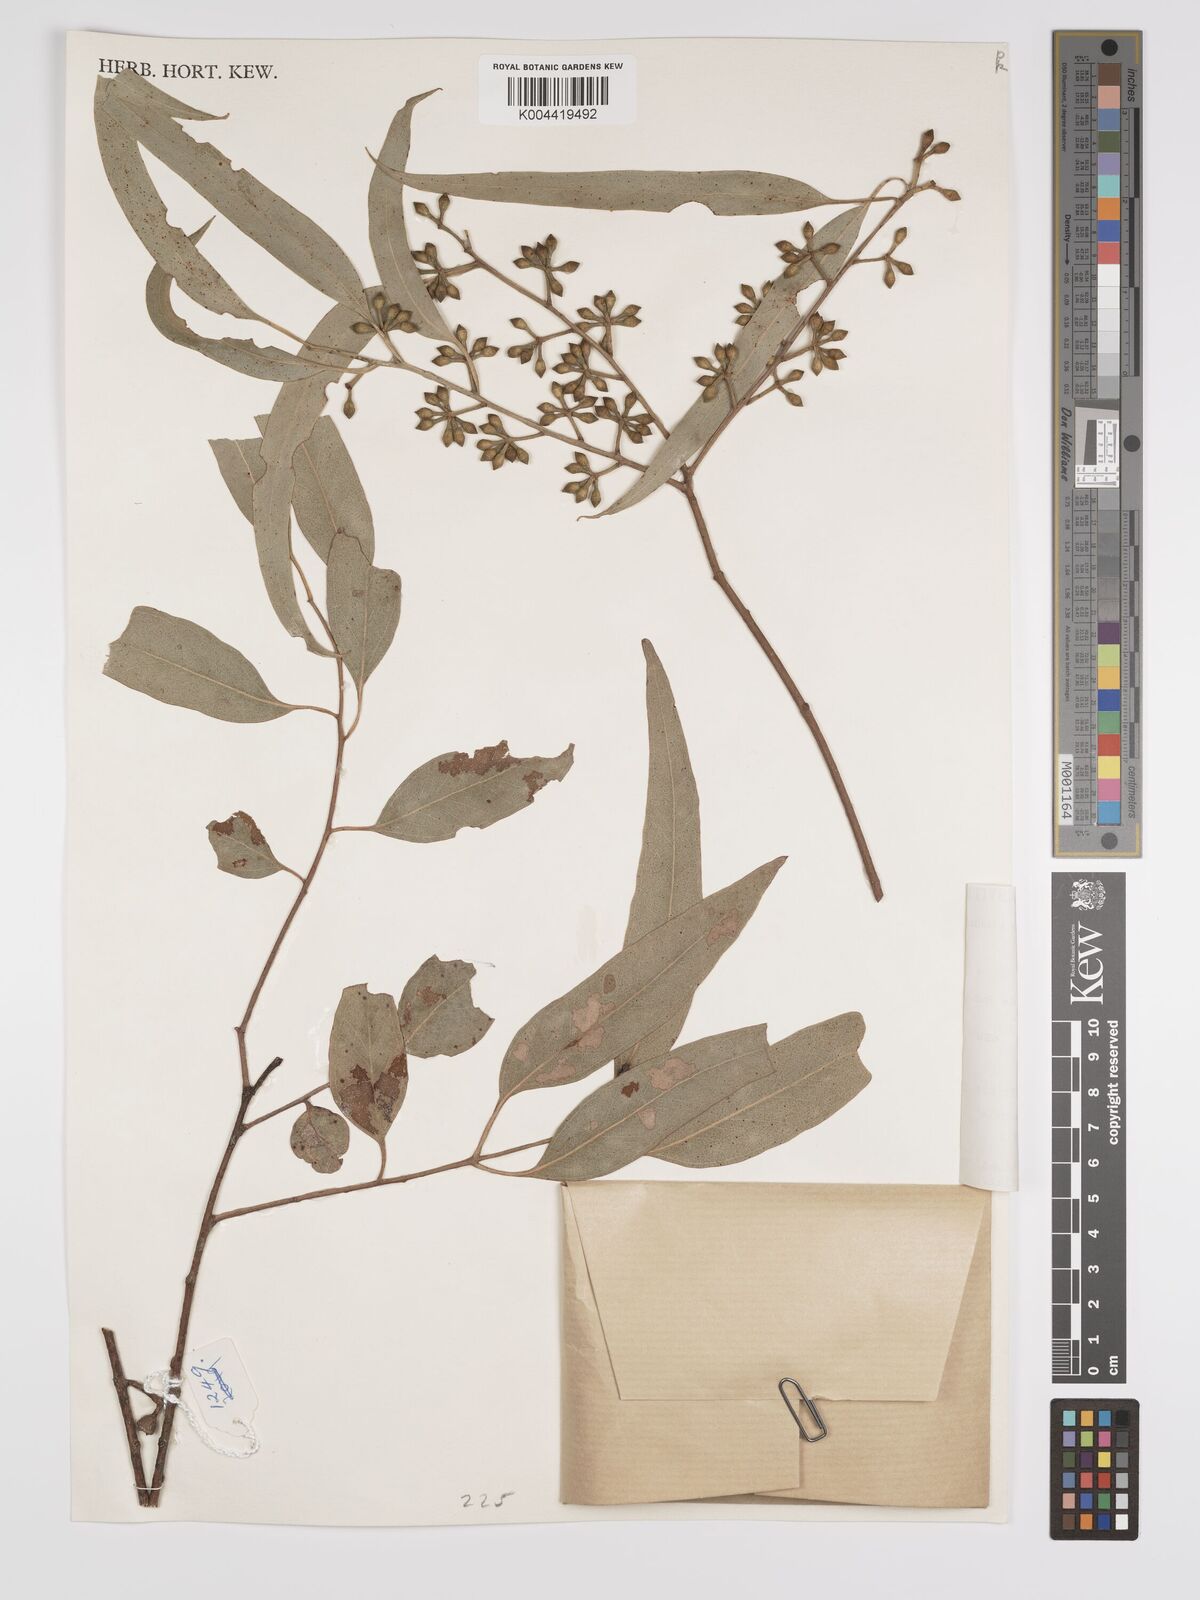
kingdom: Plantae
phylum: Tracheophyta
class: Magnoliopsida
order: Myrtales
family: Myrtaceae
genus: Eucalyptus
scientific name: Eucalyptus bridgesiana
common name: Applebox
